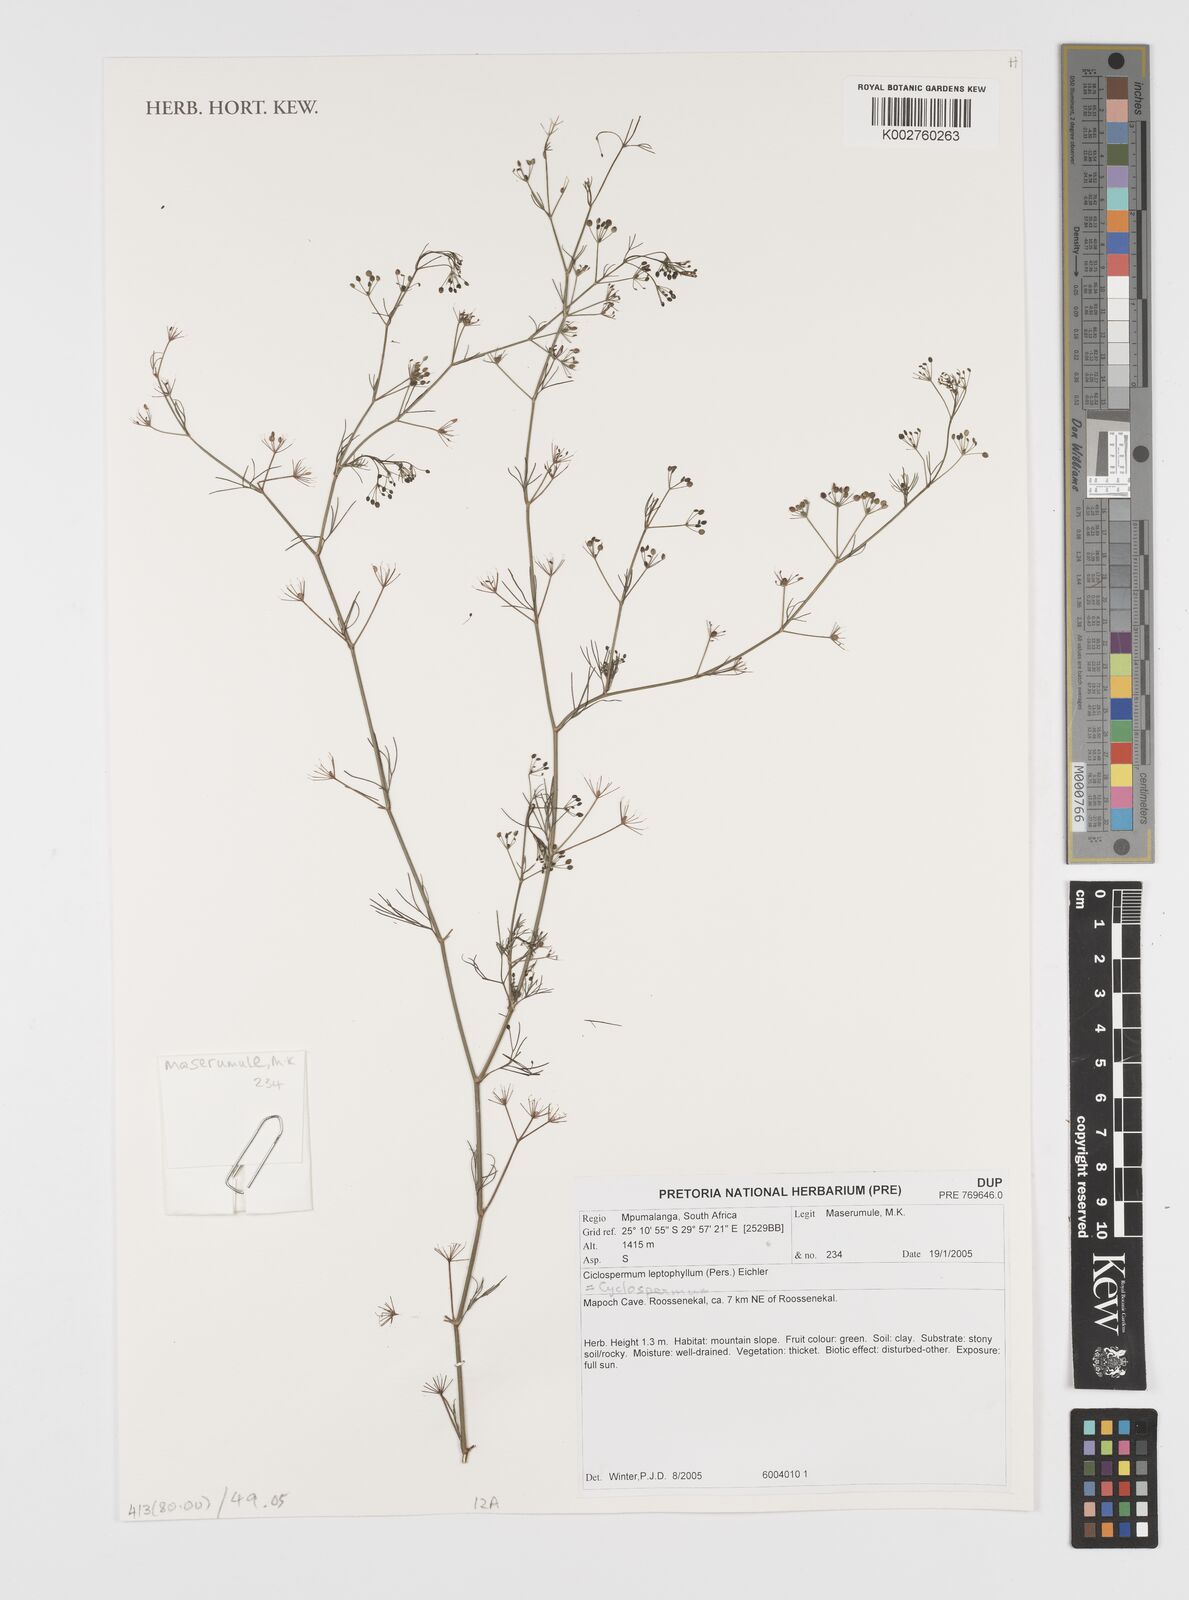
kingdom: Plantae
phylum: Tracheophyta
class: Magnoliopsida
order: Apiales
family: Apiaceae
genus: Cyclospermum
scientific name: Cyclospermum leptophyllum
